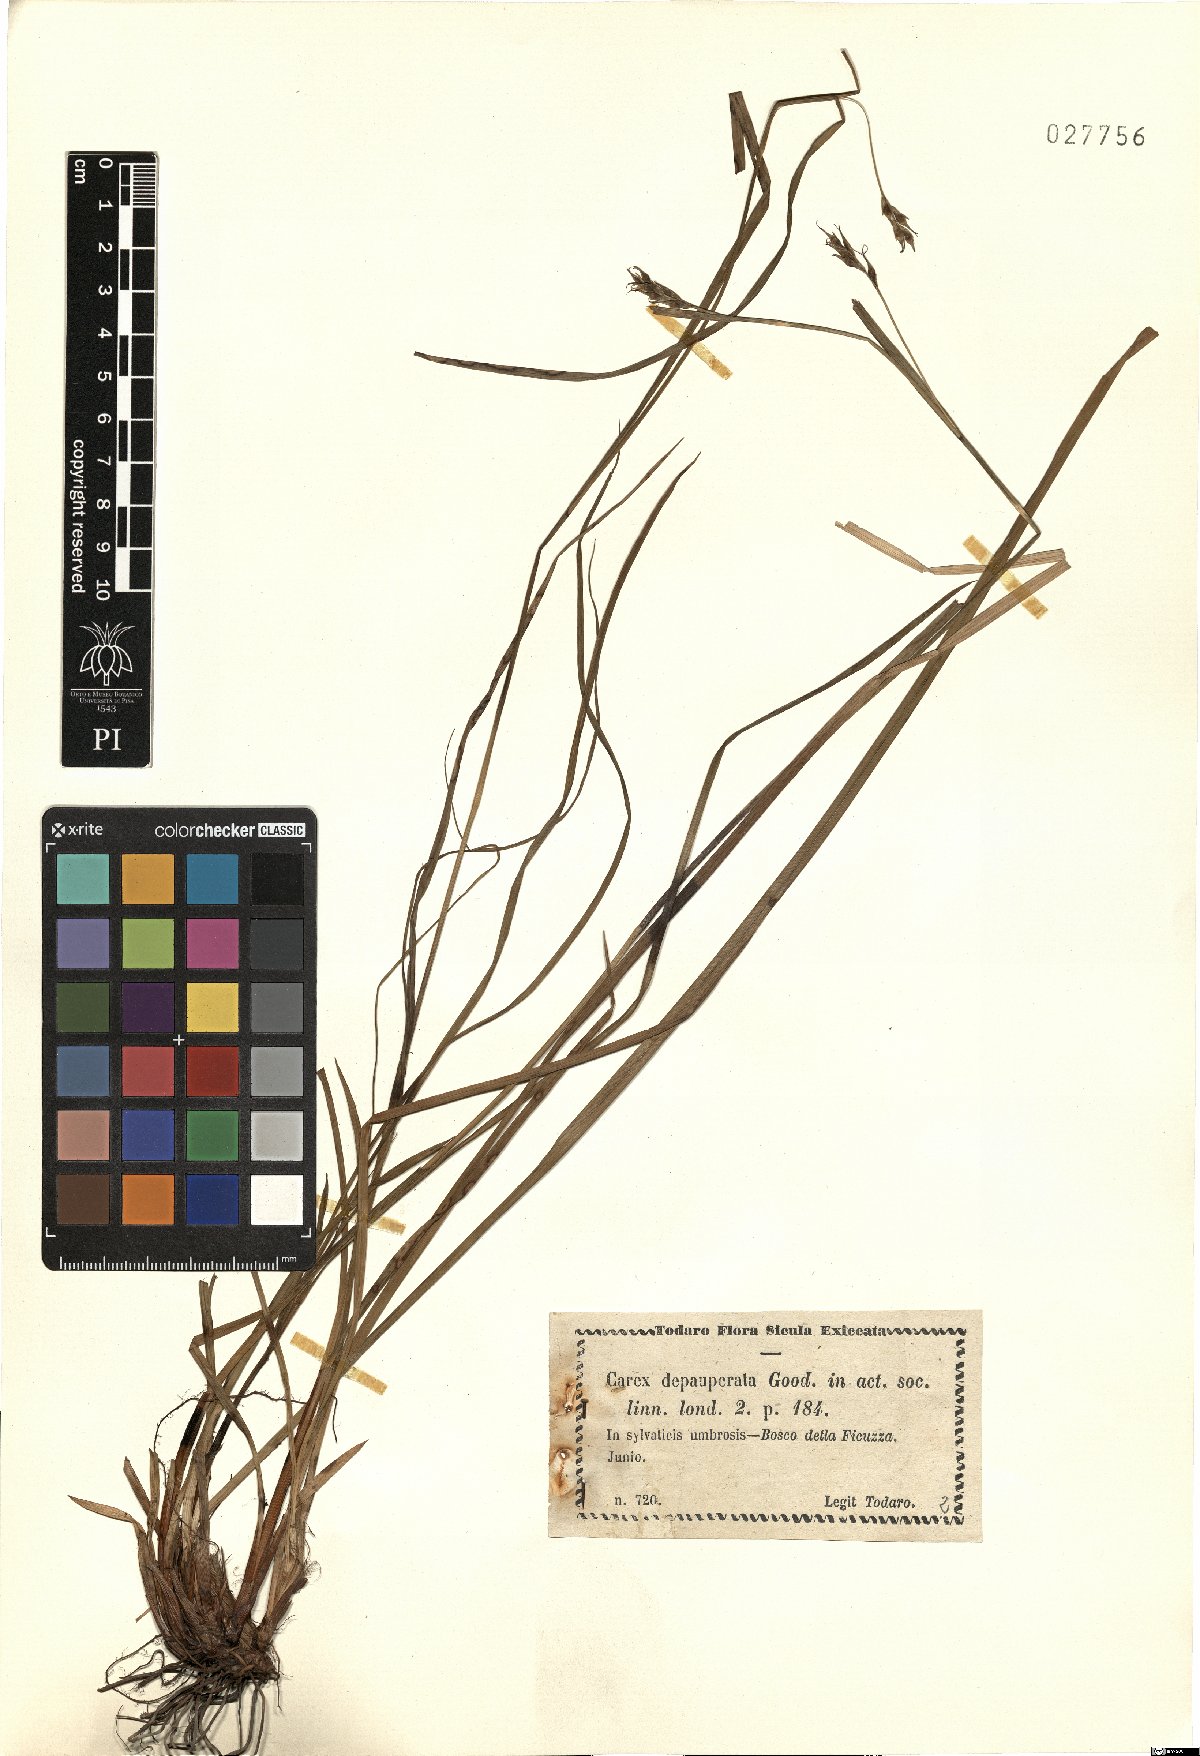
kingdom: Plantae
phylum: Tracheophyta
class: Liliopsida
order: Poales
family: Cyperaceae
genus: Carex
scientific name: Carex depauperata
